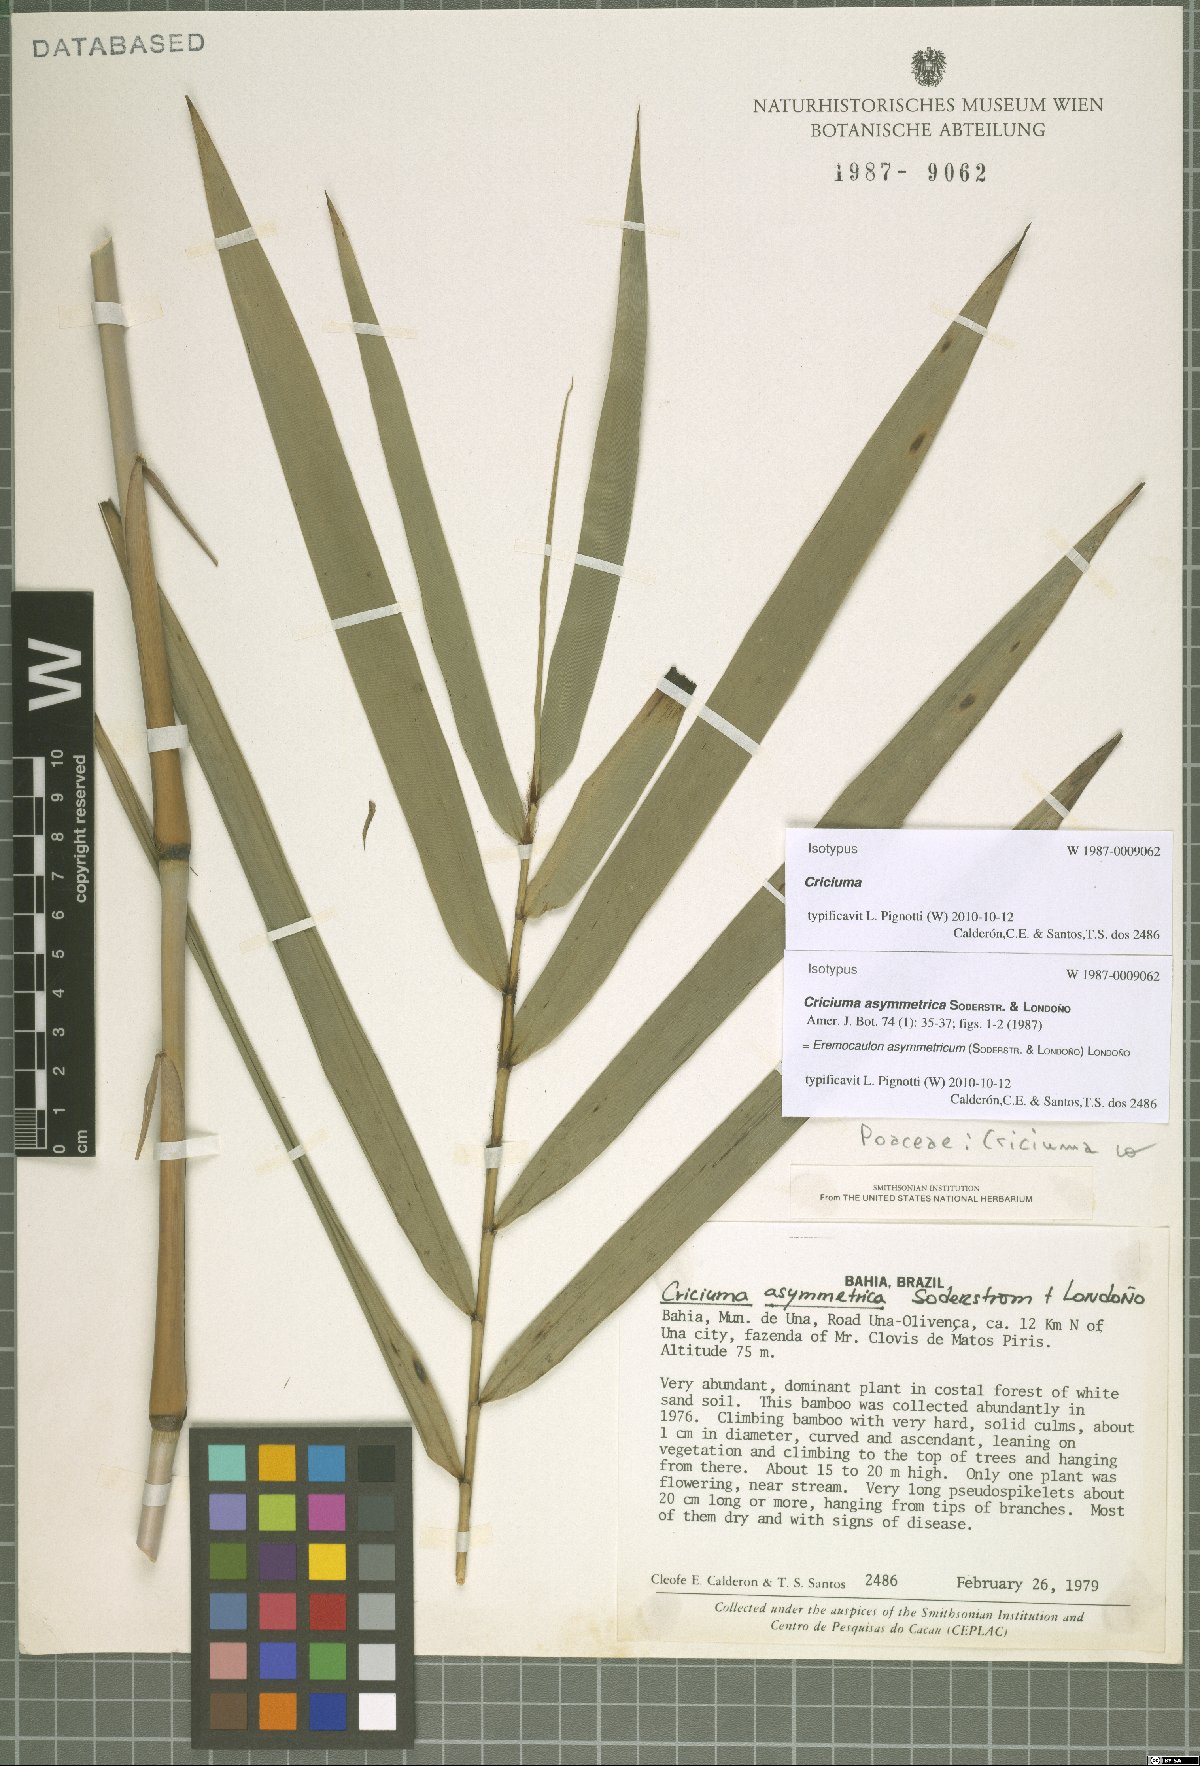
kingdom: Plantae
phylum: Tracheophyta
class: Liliopsida
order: Poales
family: Poaceae
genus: Eremocaulon
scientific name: Eremocaulon asymmetricum
